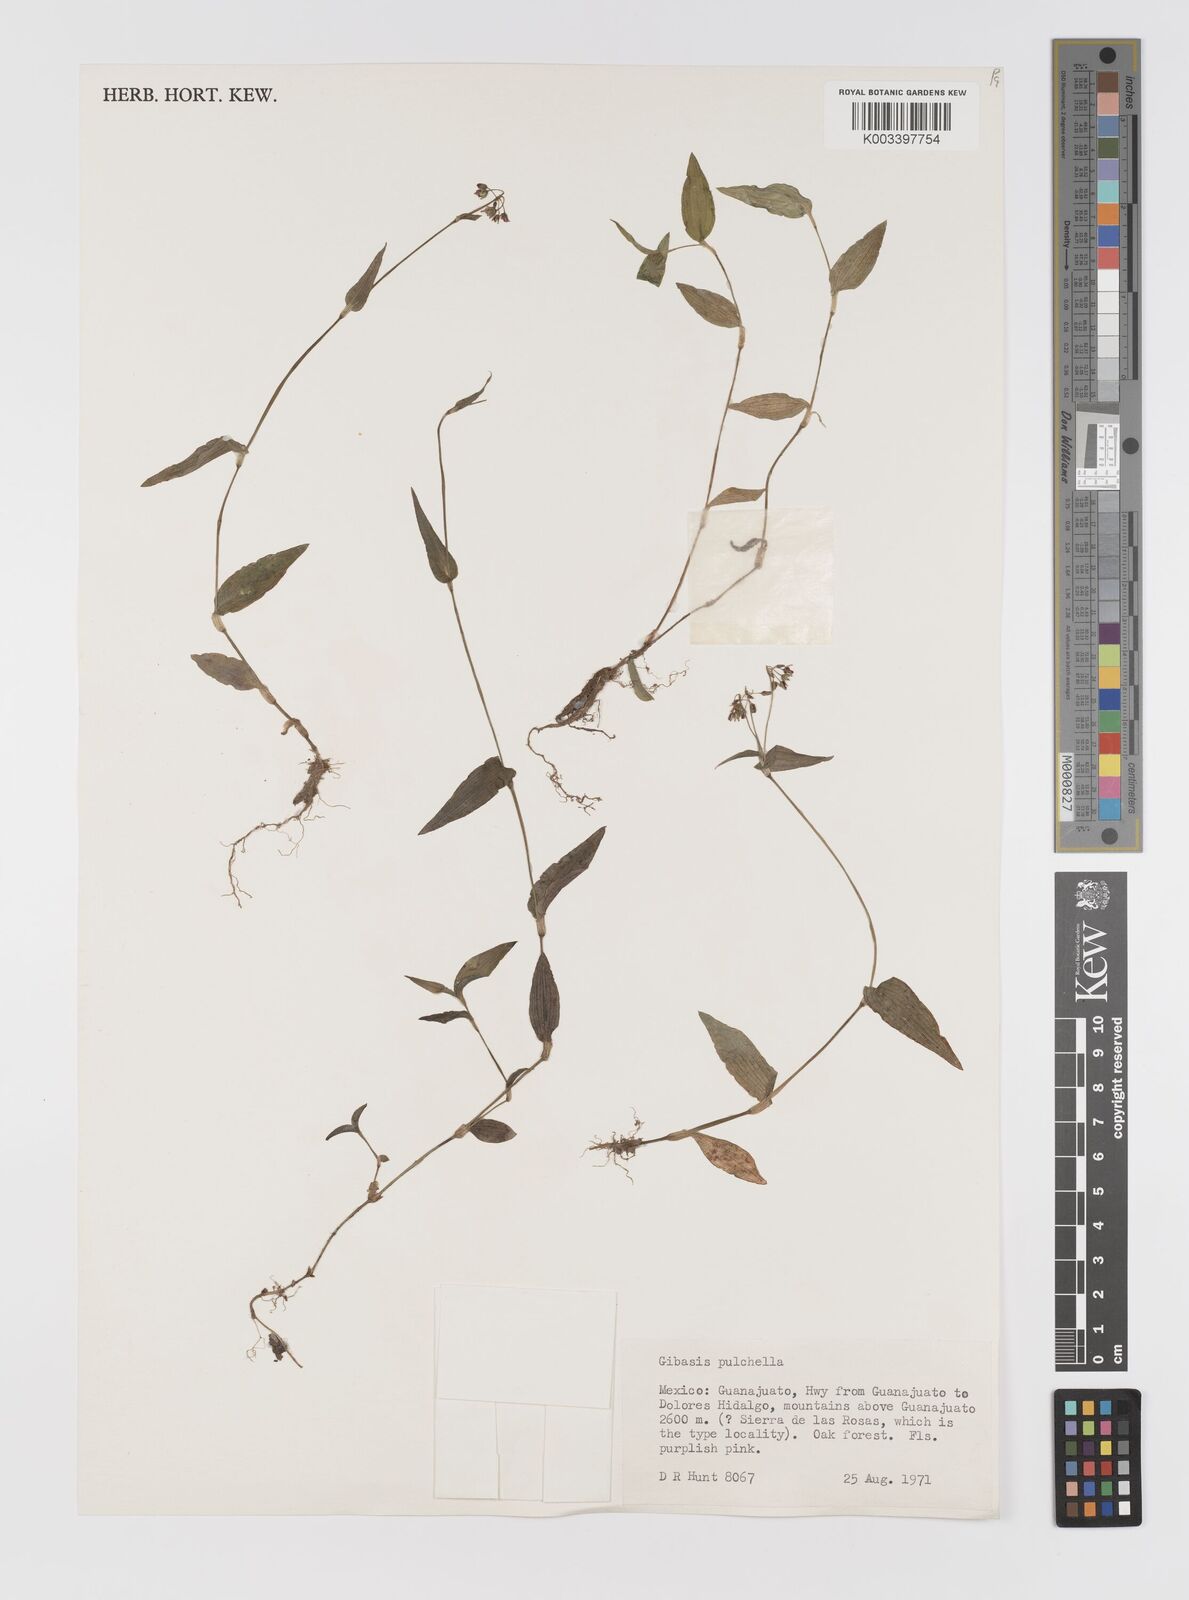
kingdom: Plantae
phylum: Tracheophyta
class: Liliopsida
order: Commelinales
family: Commelinaceae
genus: Gibasis
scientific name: Gibasis pulchella
